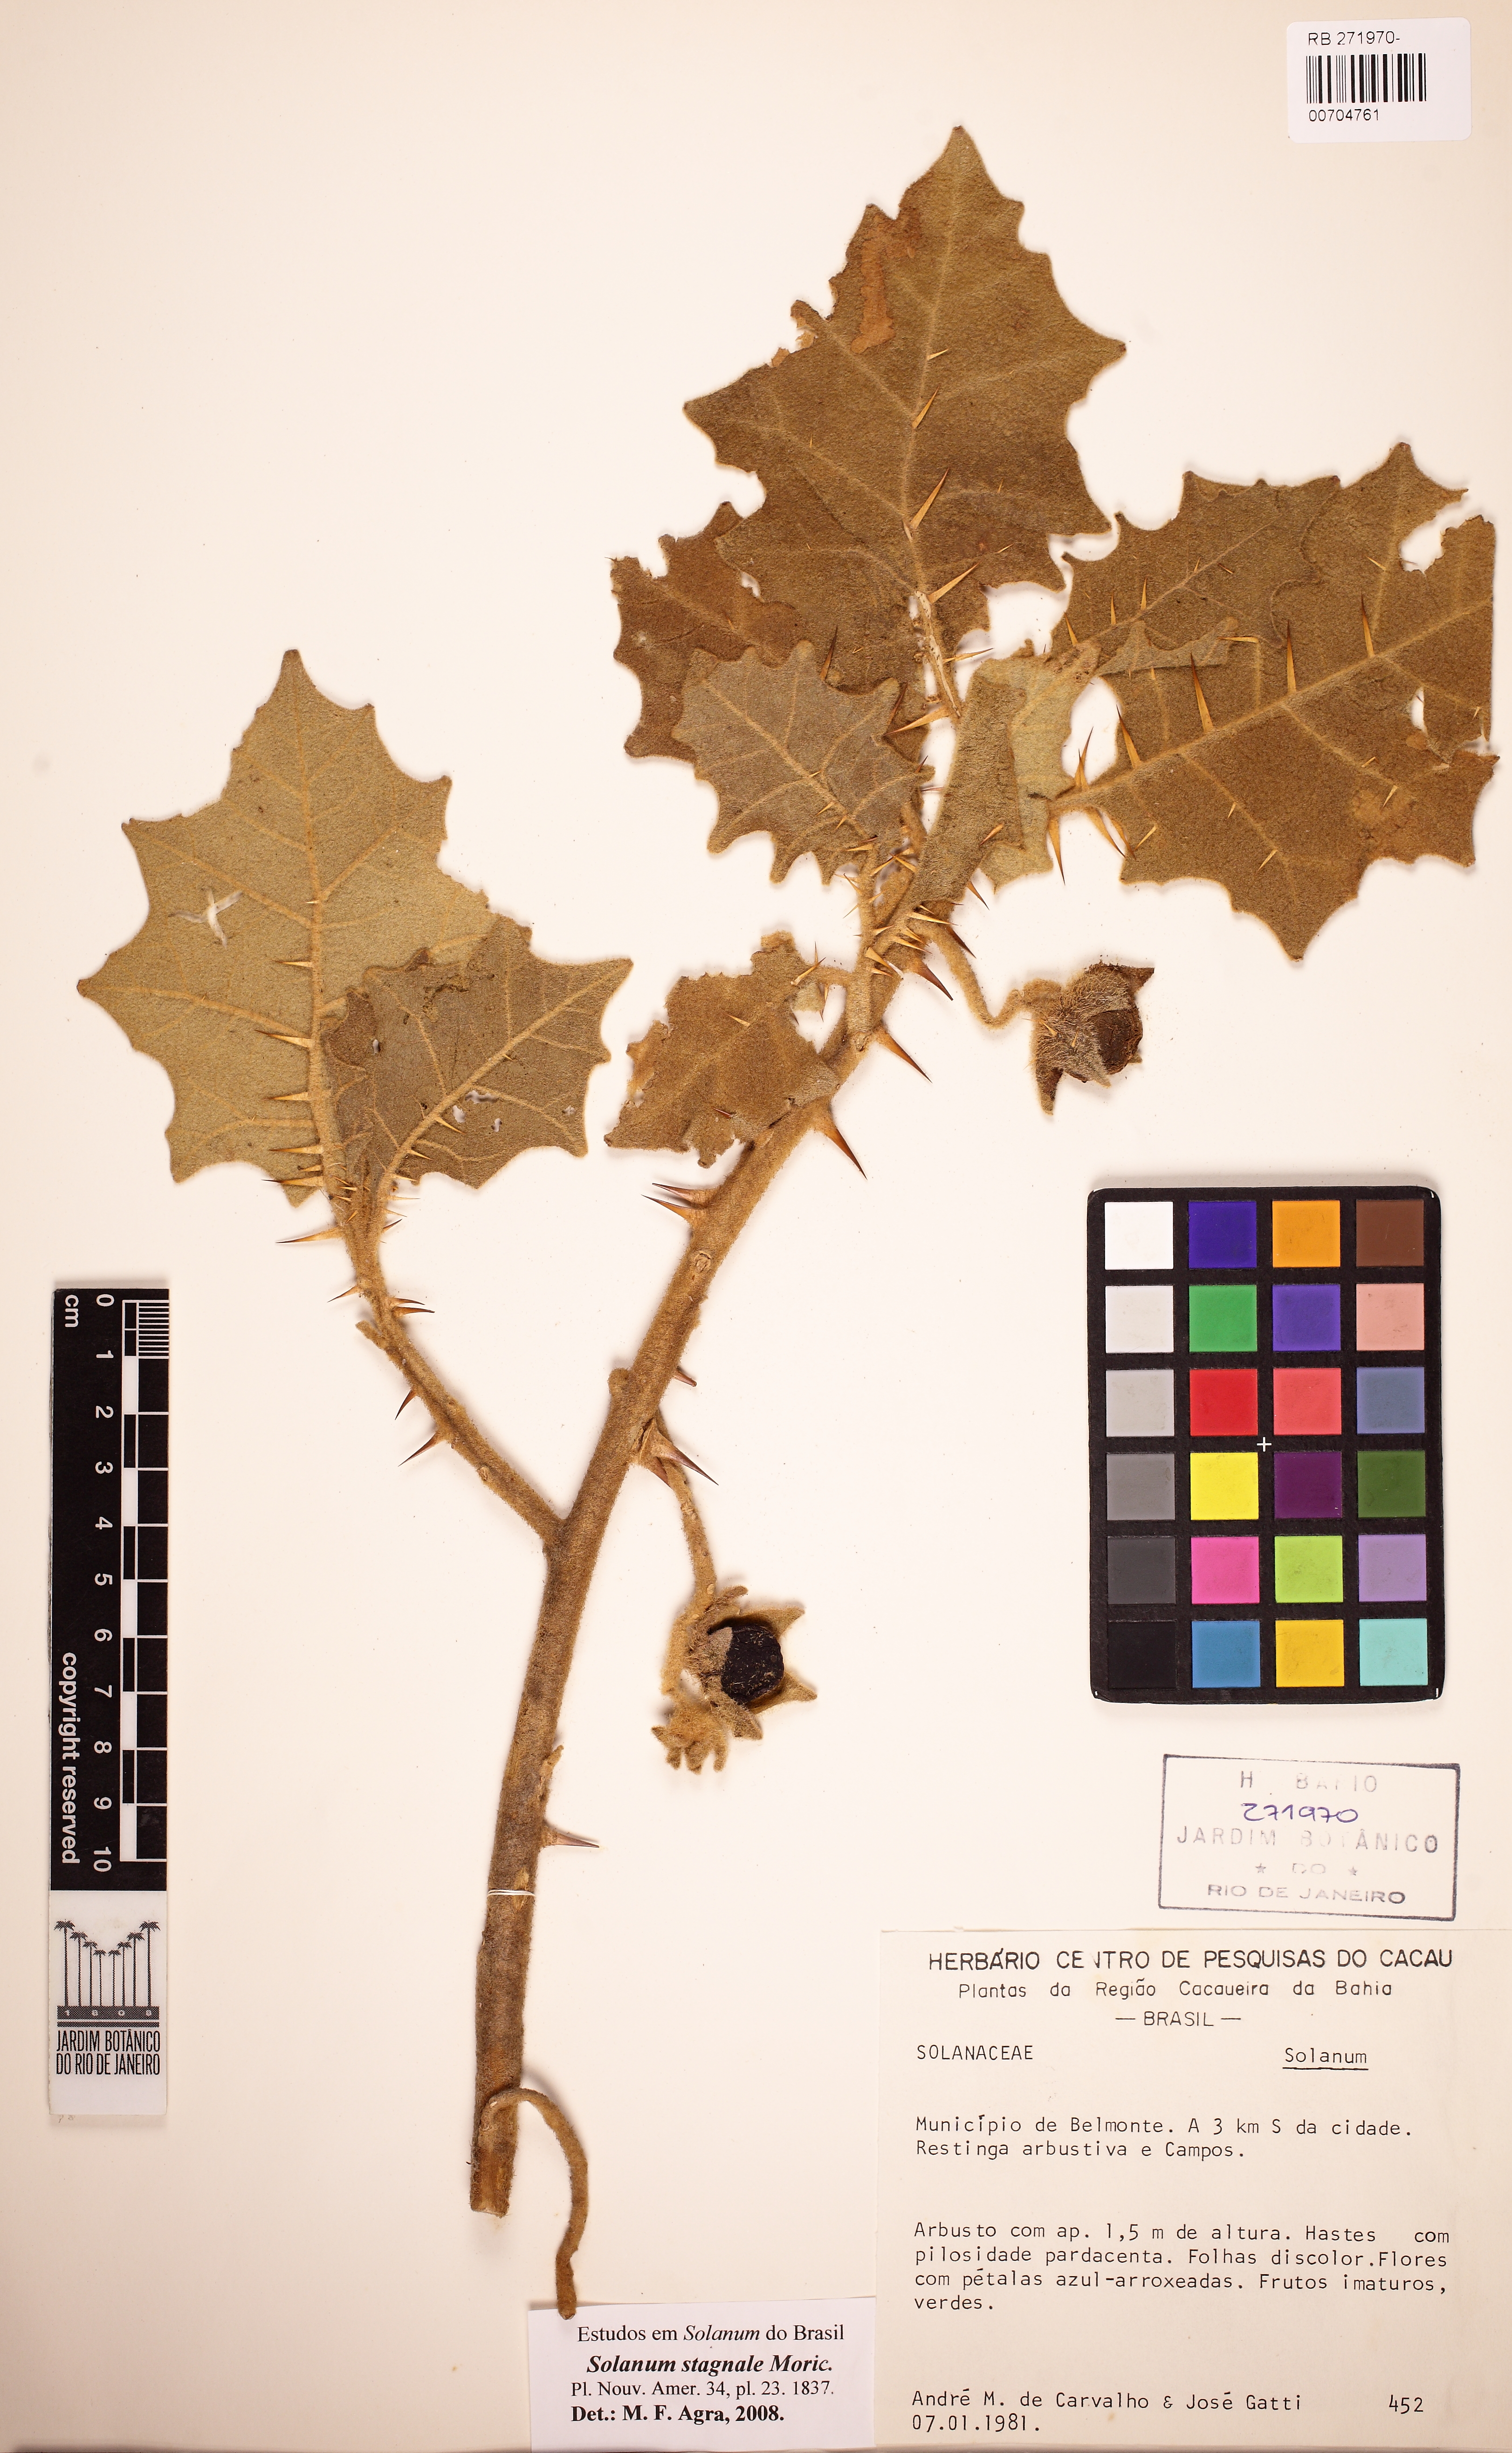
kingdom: Plantae
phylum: Tracheophyta
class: Magnoliopsida
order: Solanales
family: Solanaceae
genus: Solanum
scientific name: Solanum stagnale
